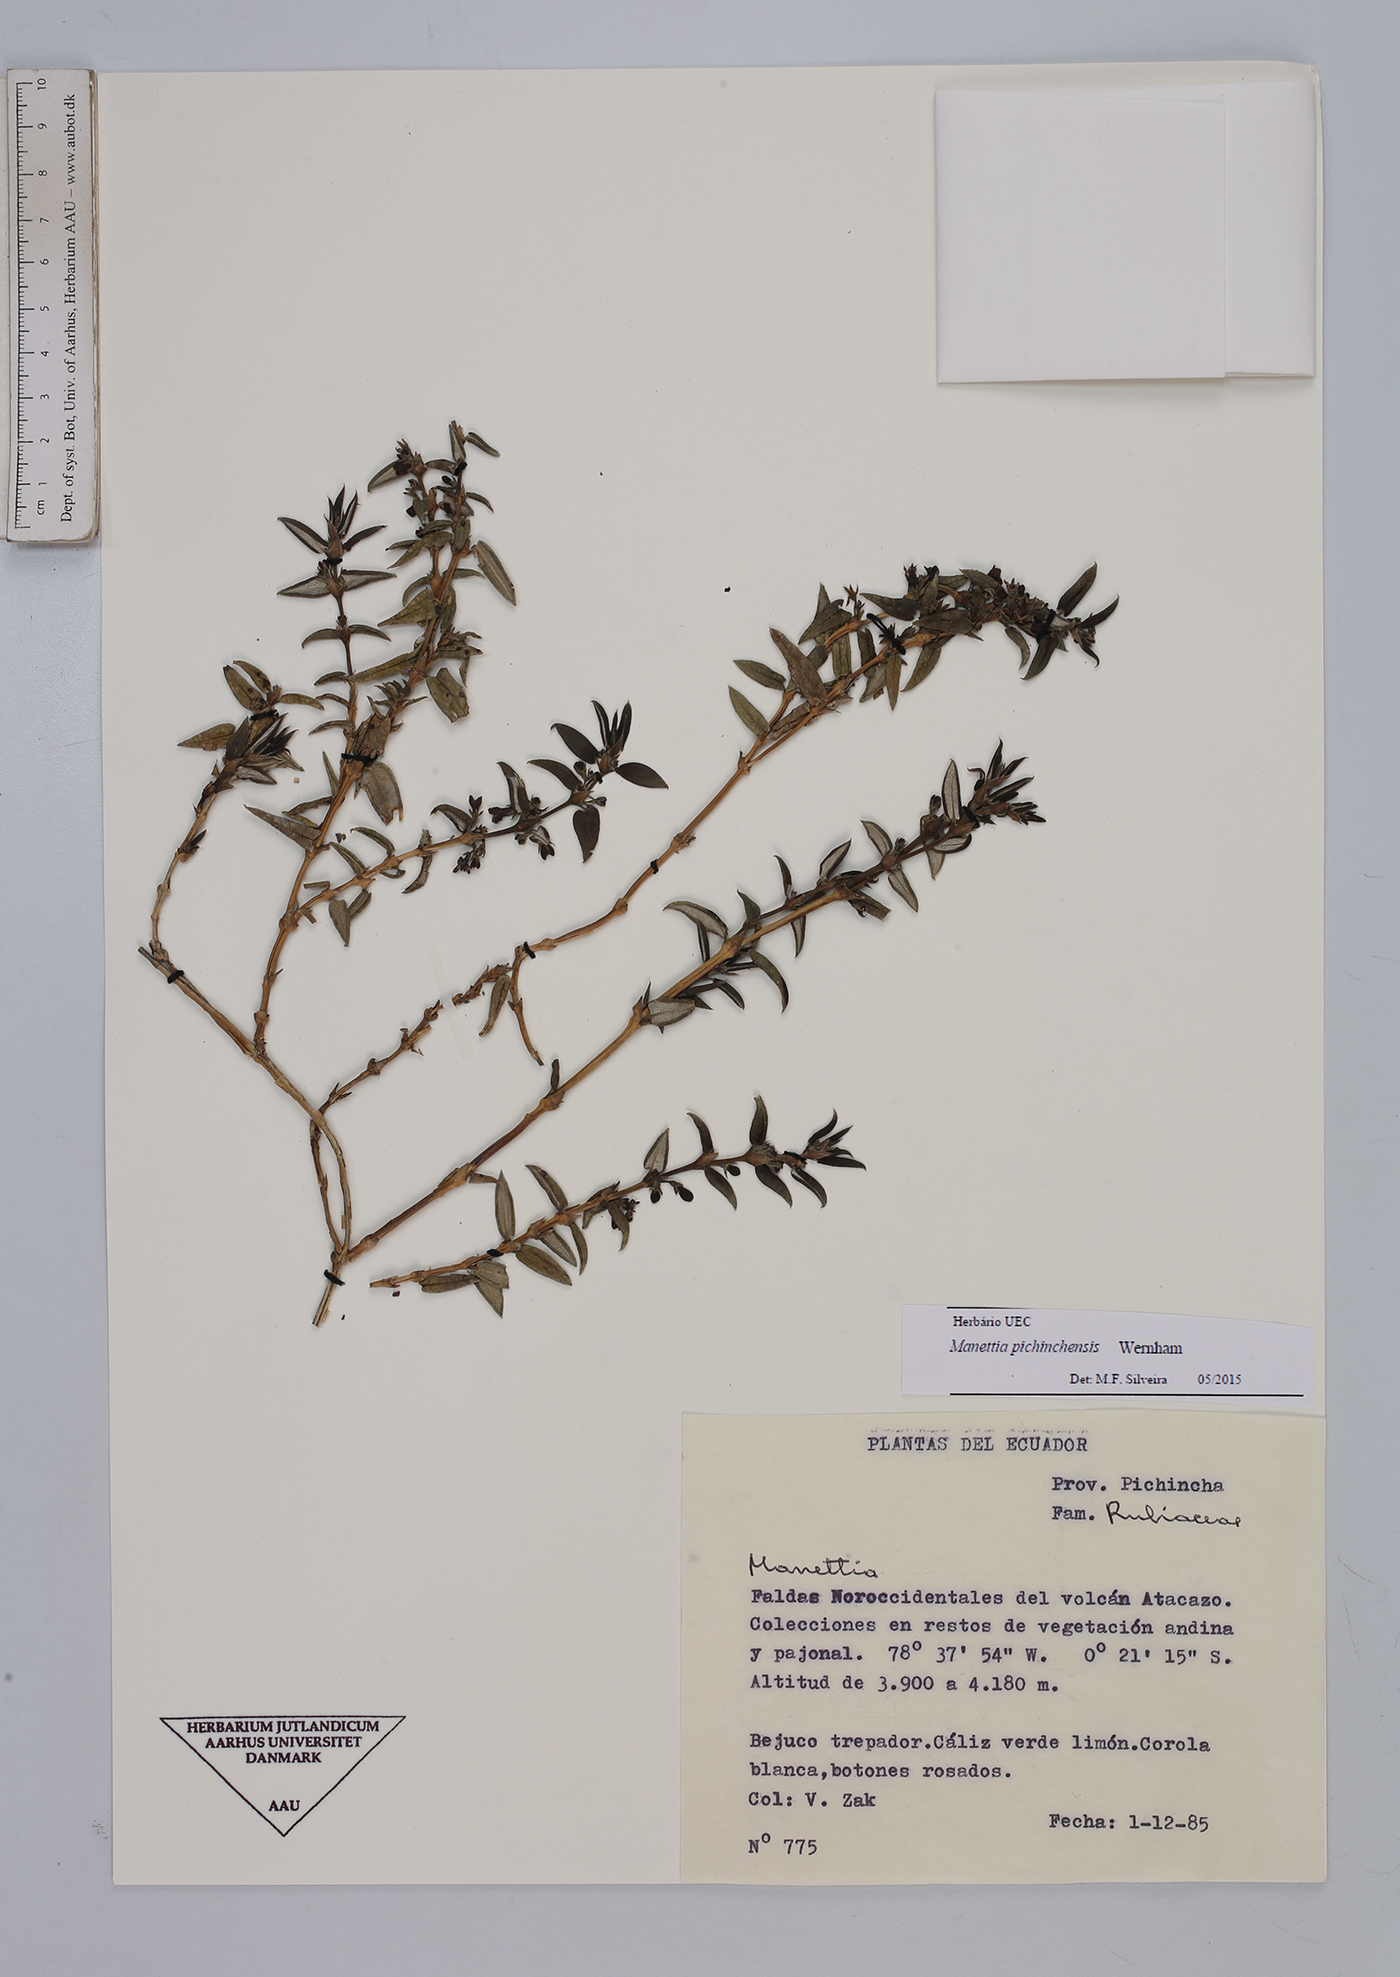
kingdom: Plantae
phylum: Tracheophyta
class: Magnoliopsida
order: Gentianales
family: Rubiaceae
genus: Manettia
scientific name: Manettia pichinchensis
